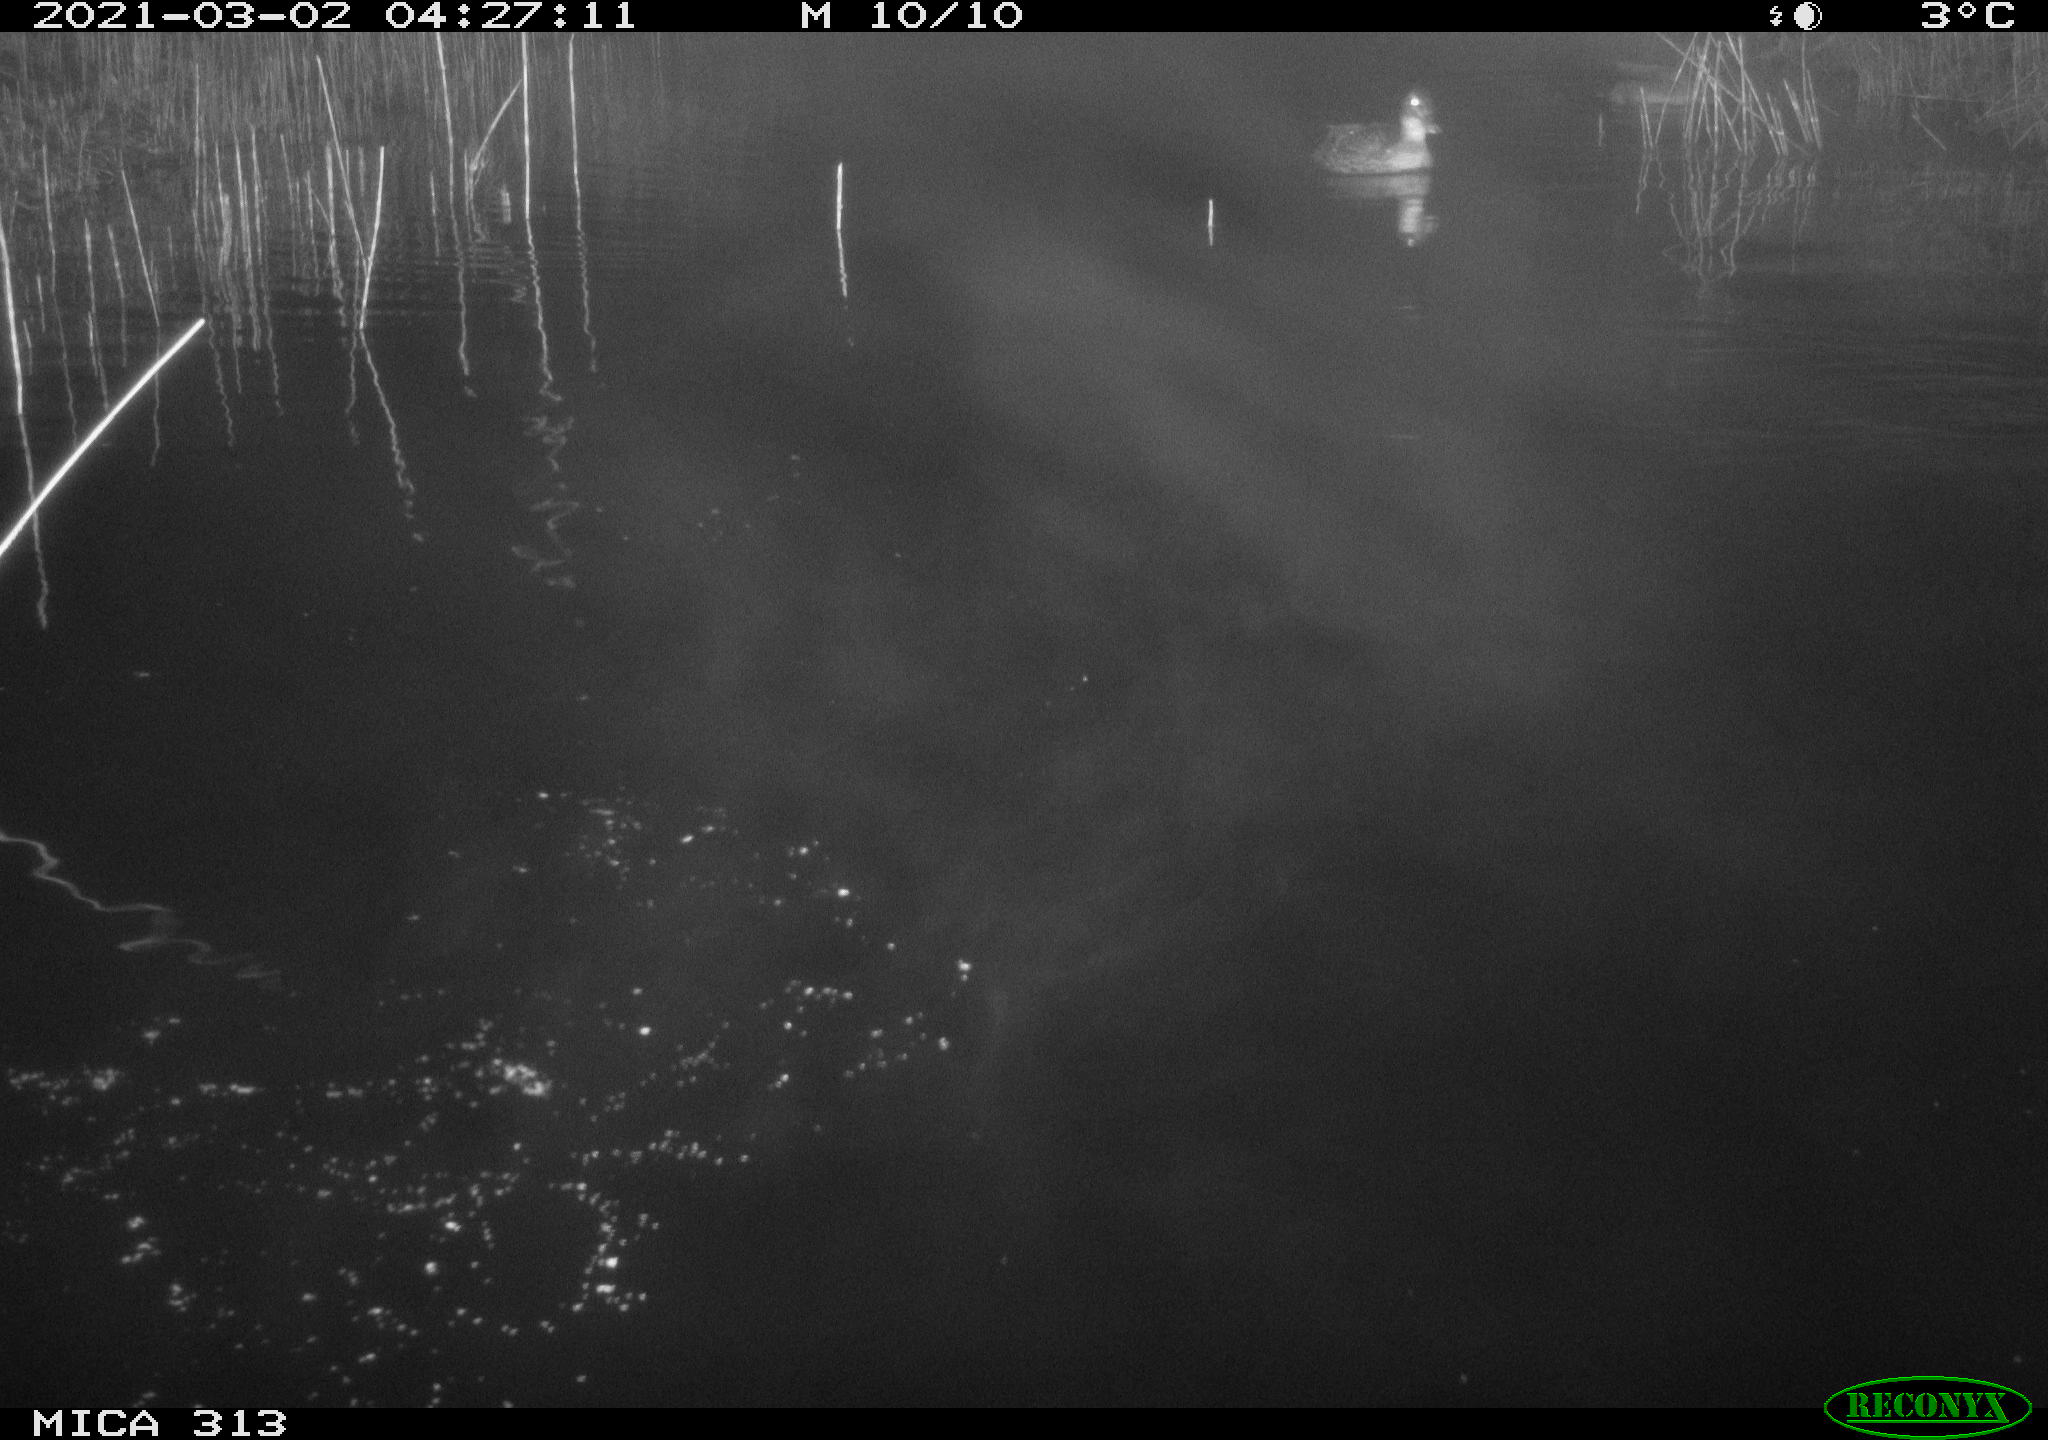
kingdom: Animalia
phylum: Chordata
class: Aves
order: Anseriformes
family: Anatidae
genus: Anas
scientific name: Anas platyrhynchos
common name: Mallard
